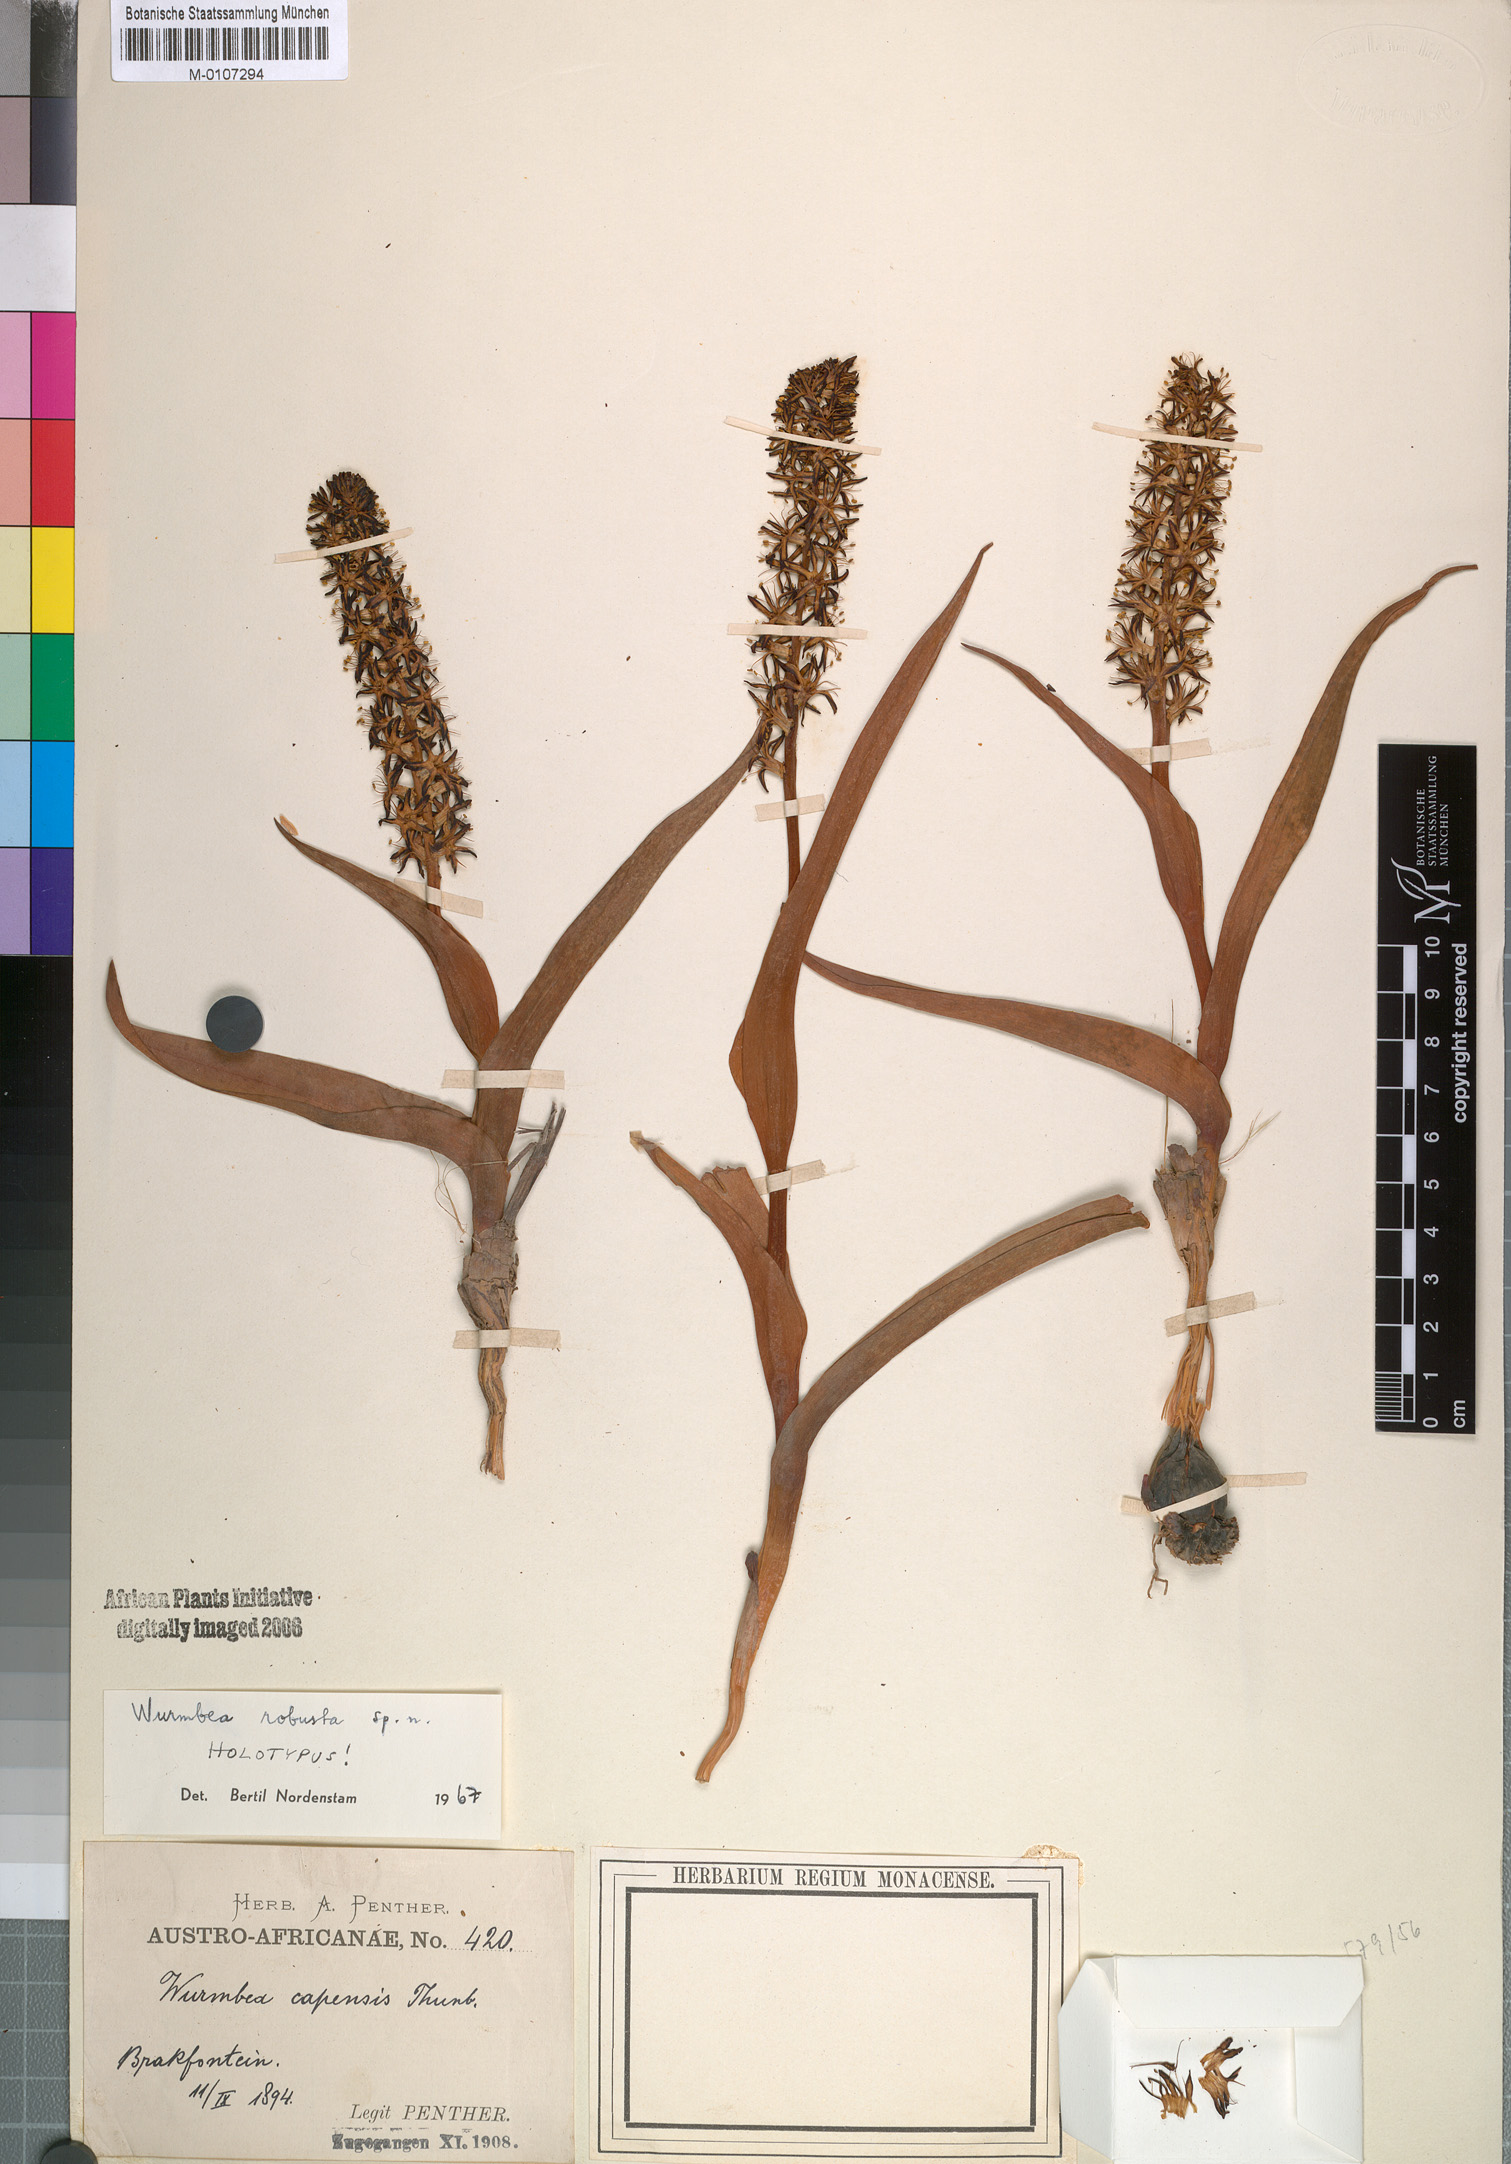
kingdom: Plantae
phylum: Tracheophyta
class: Liliopsida
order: Liliales
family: Colchicaceae
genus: Wurmbea
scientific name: Wurmbea robusta
